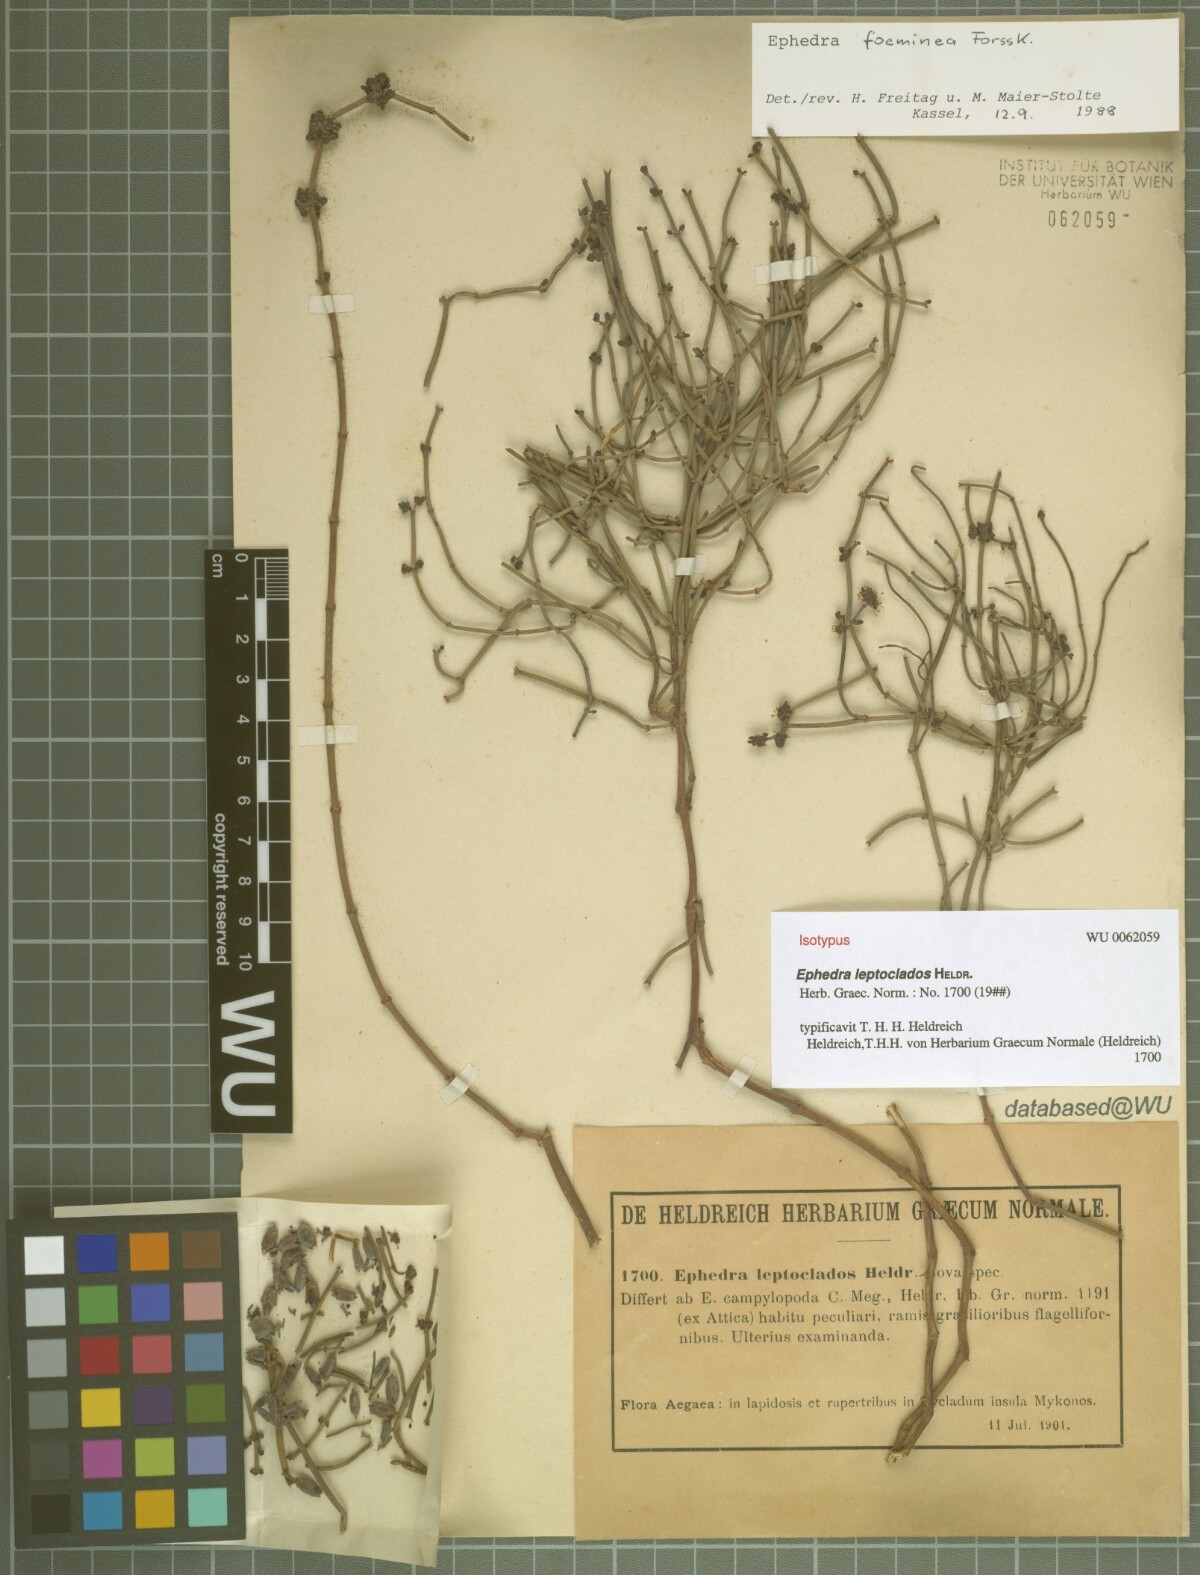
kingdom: Plantae
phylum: Tracheophyta
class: Gnetopsida
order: Ephedrales
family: Ephedraceae
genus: Ephedra
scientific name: Ephedra
